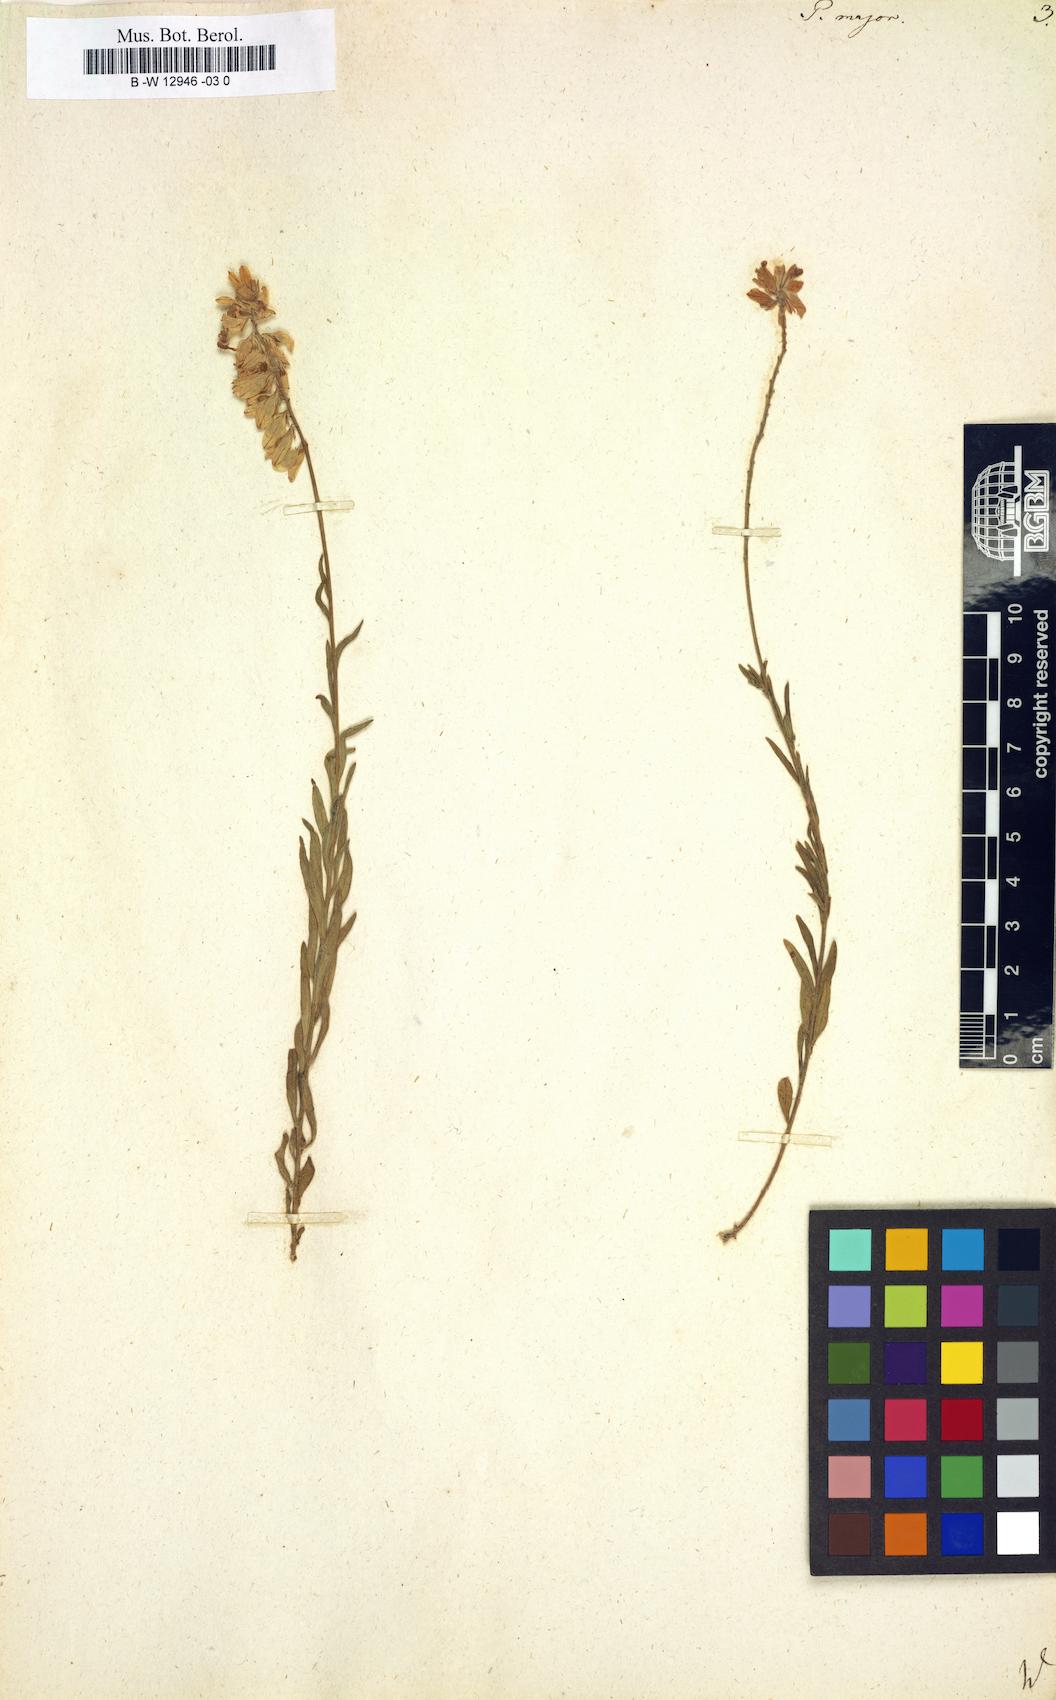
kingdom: Plantae
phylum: Tracheophyta
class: Magnoliopsida
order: Fabales
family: Polygalaceae
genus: Polygala
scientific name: Polygala major
